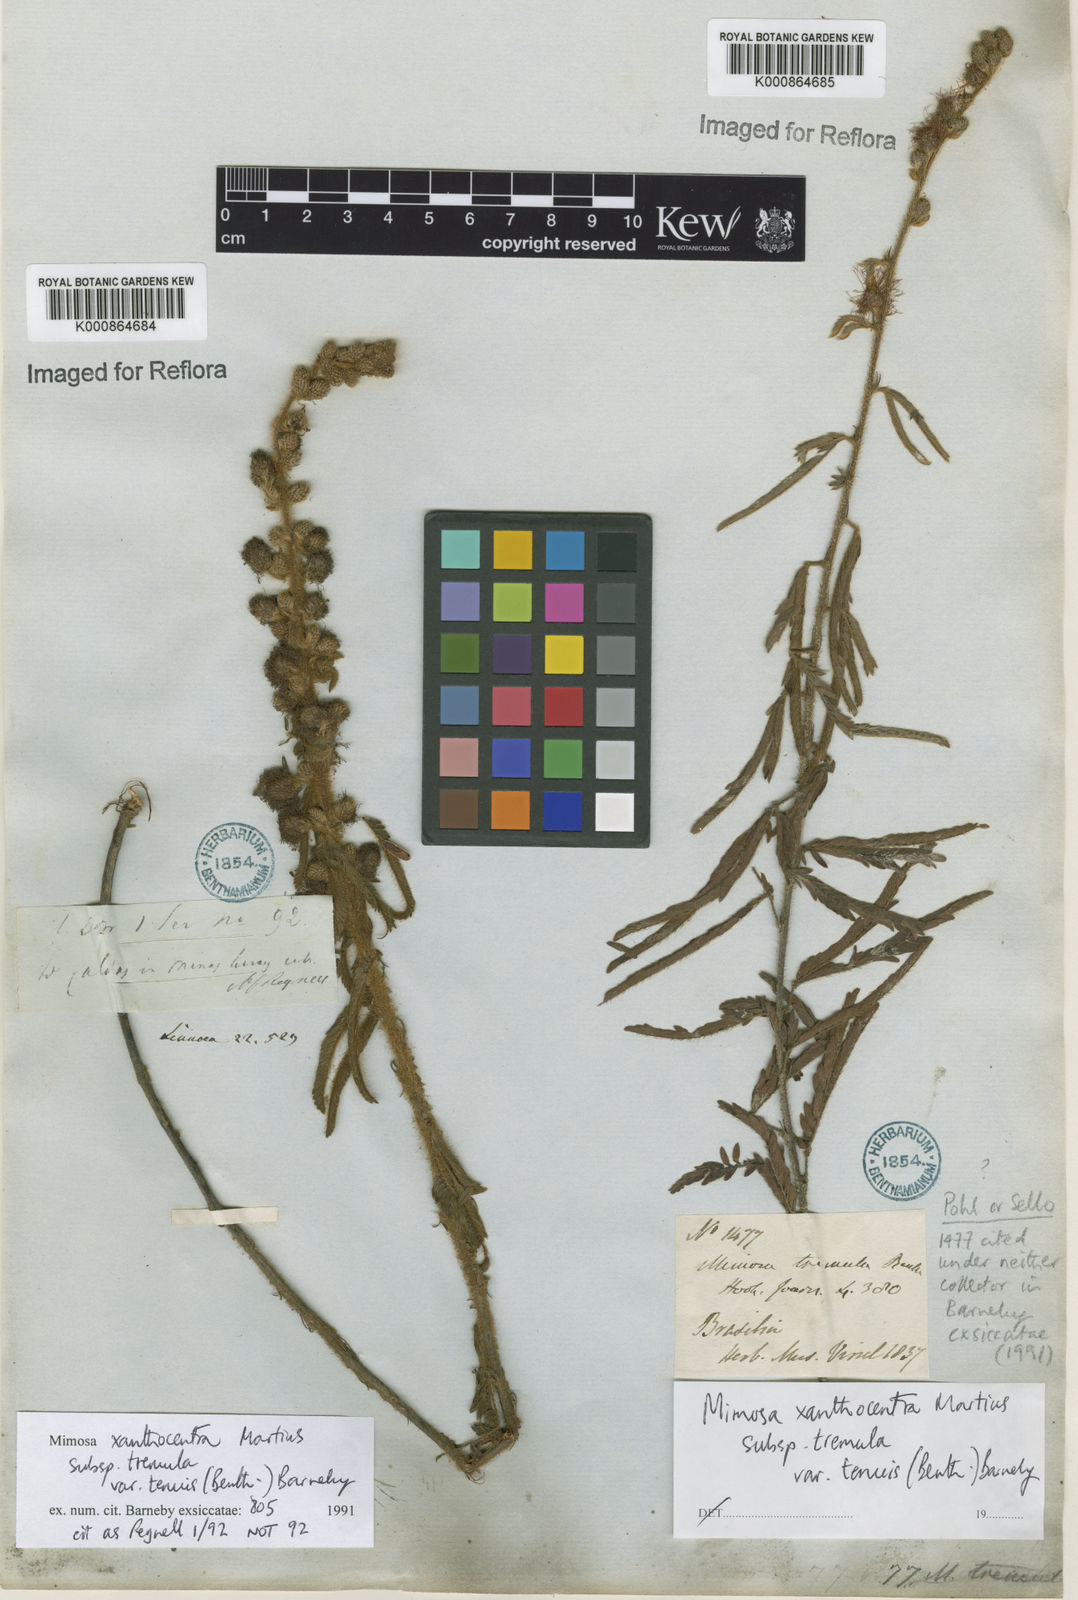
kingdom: Plantae
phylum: Tracheophyta
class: Magnoliopsida
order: Fabales
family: Fabaceae
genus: Mimosa
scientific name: Mimosa xanthocentra
